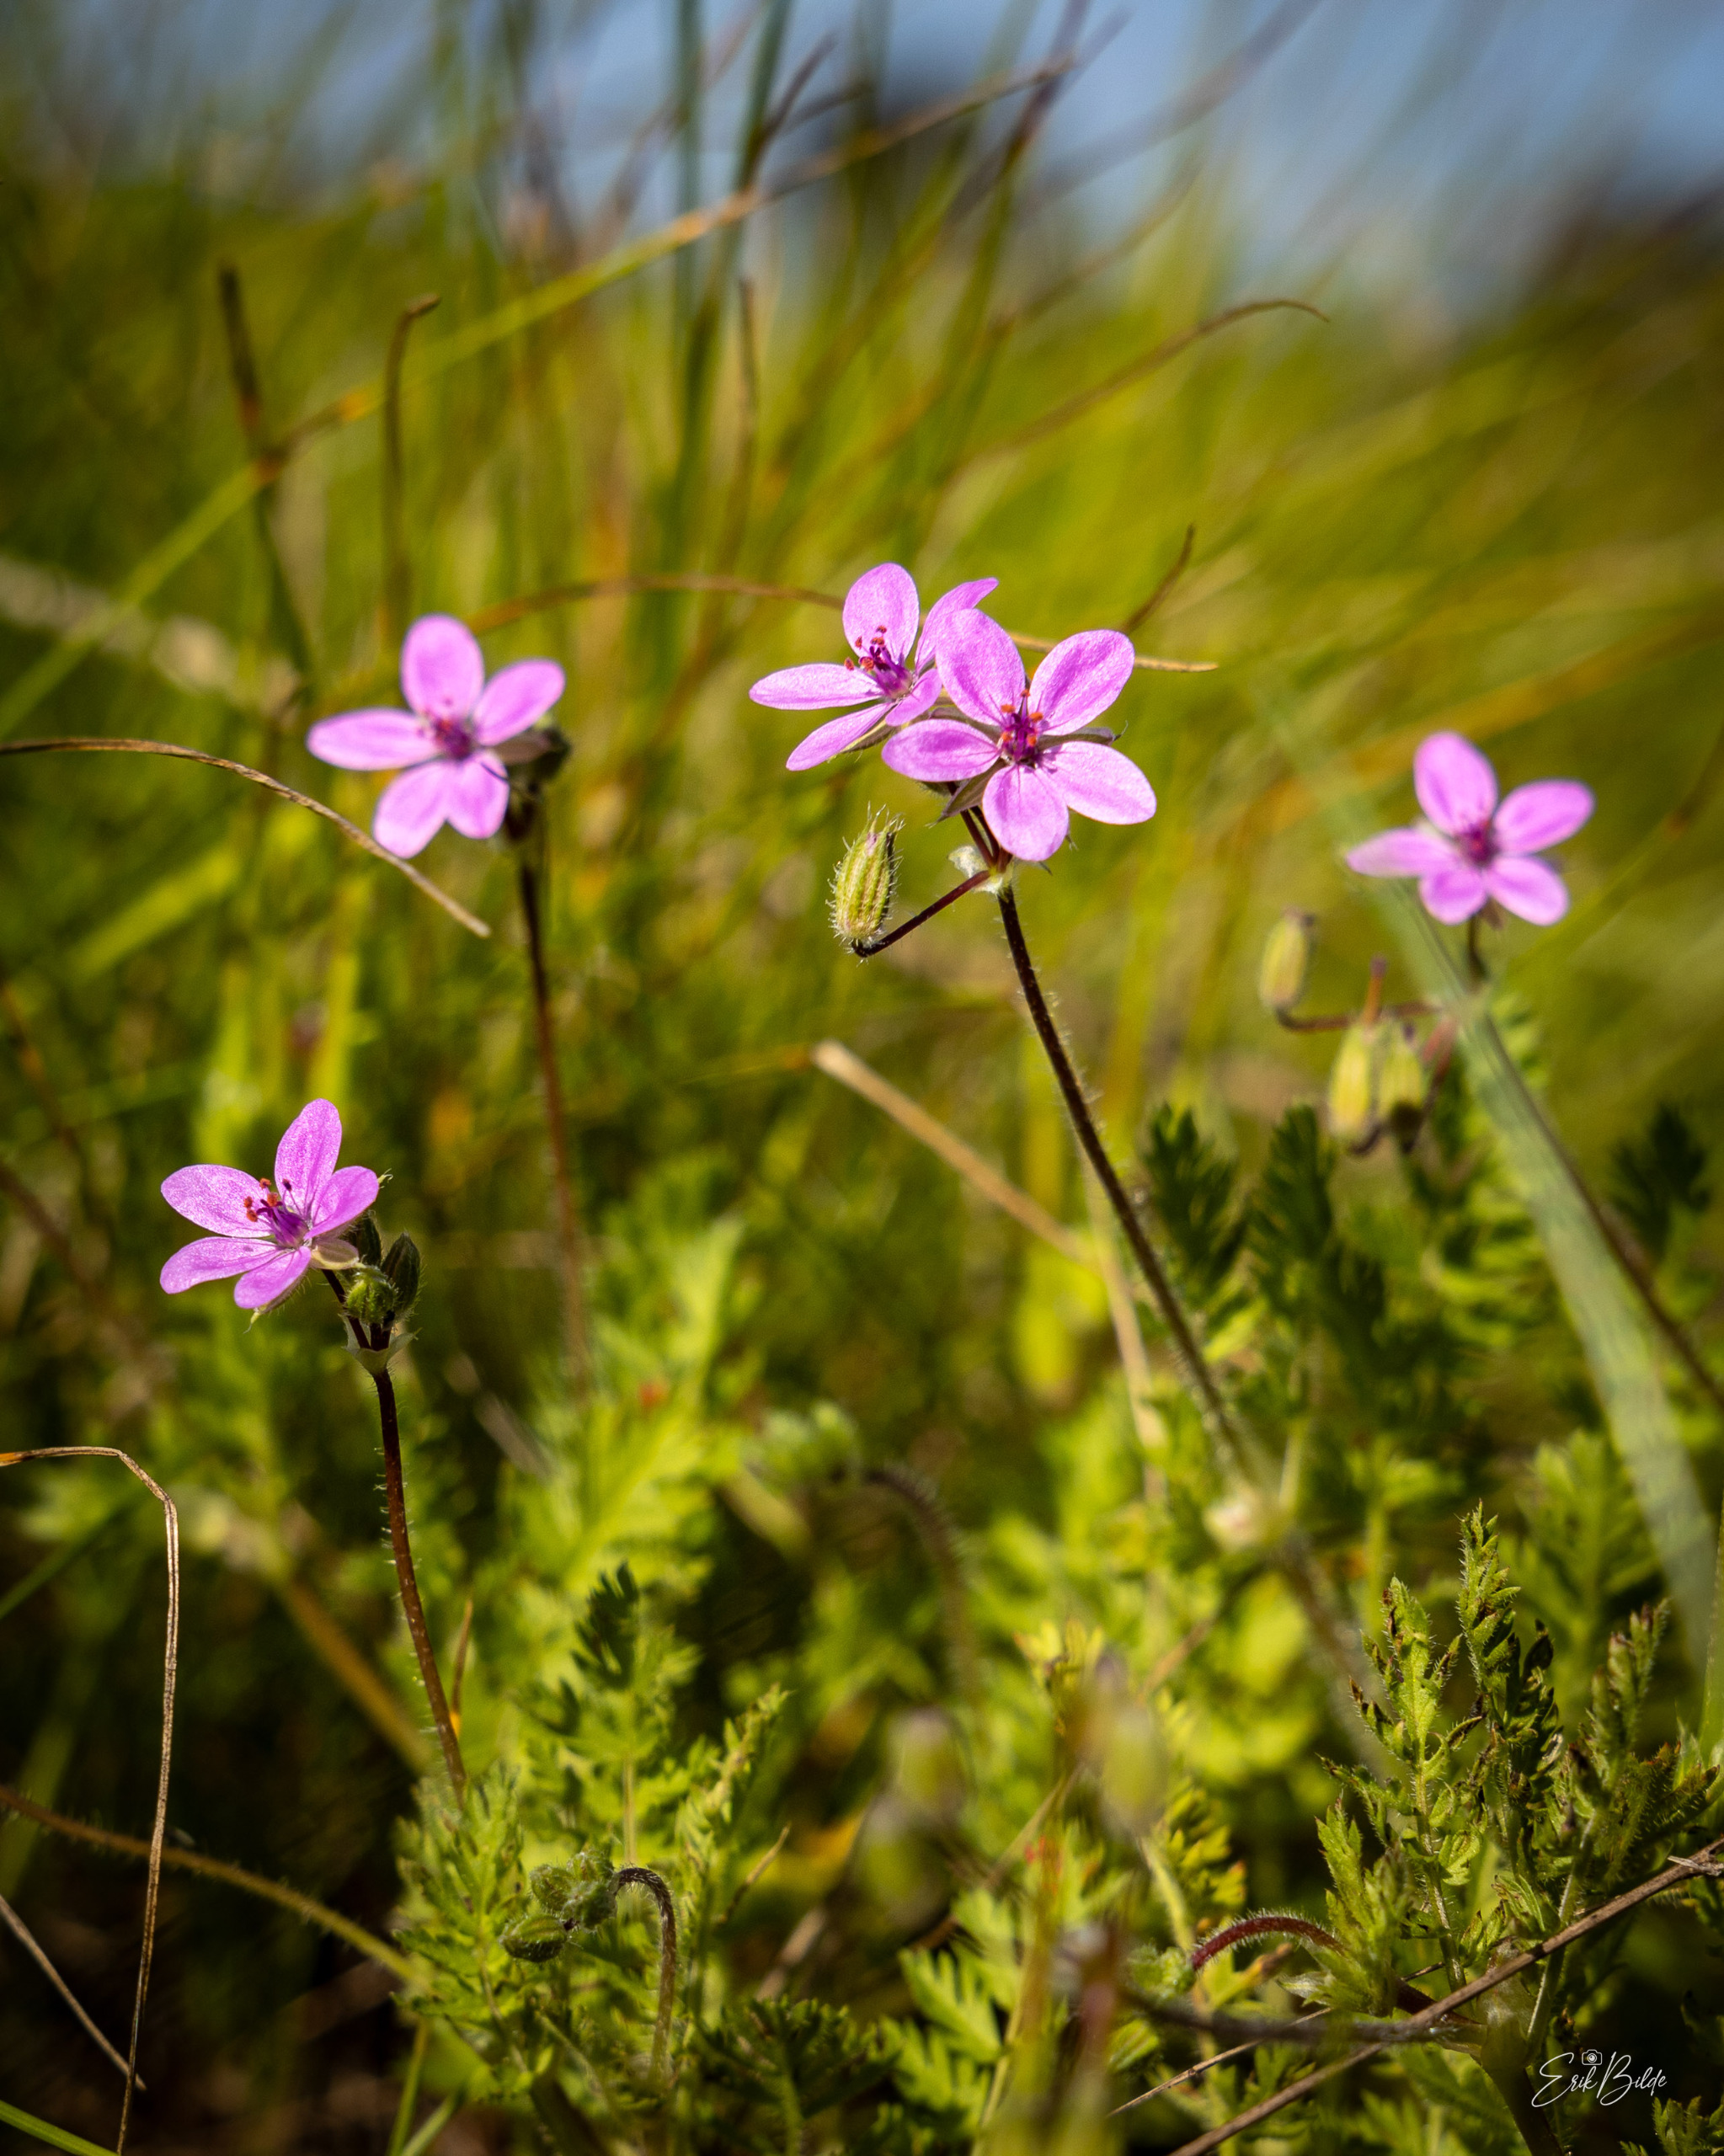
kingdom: Plantae
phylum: Tracheophyta
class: Magnoliopsida
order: Geraniales
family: Geraniaceae
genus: Erodium
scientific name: Erodium cicutarium
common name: Hejrenæb
